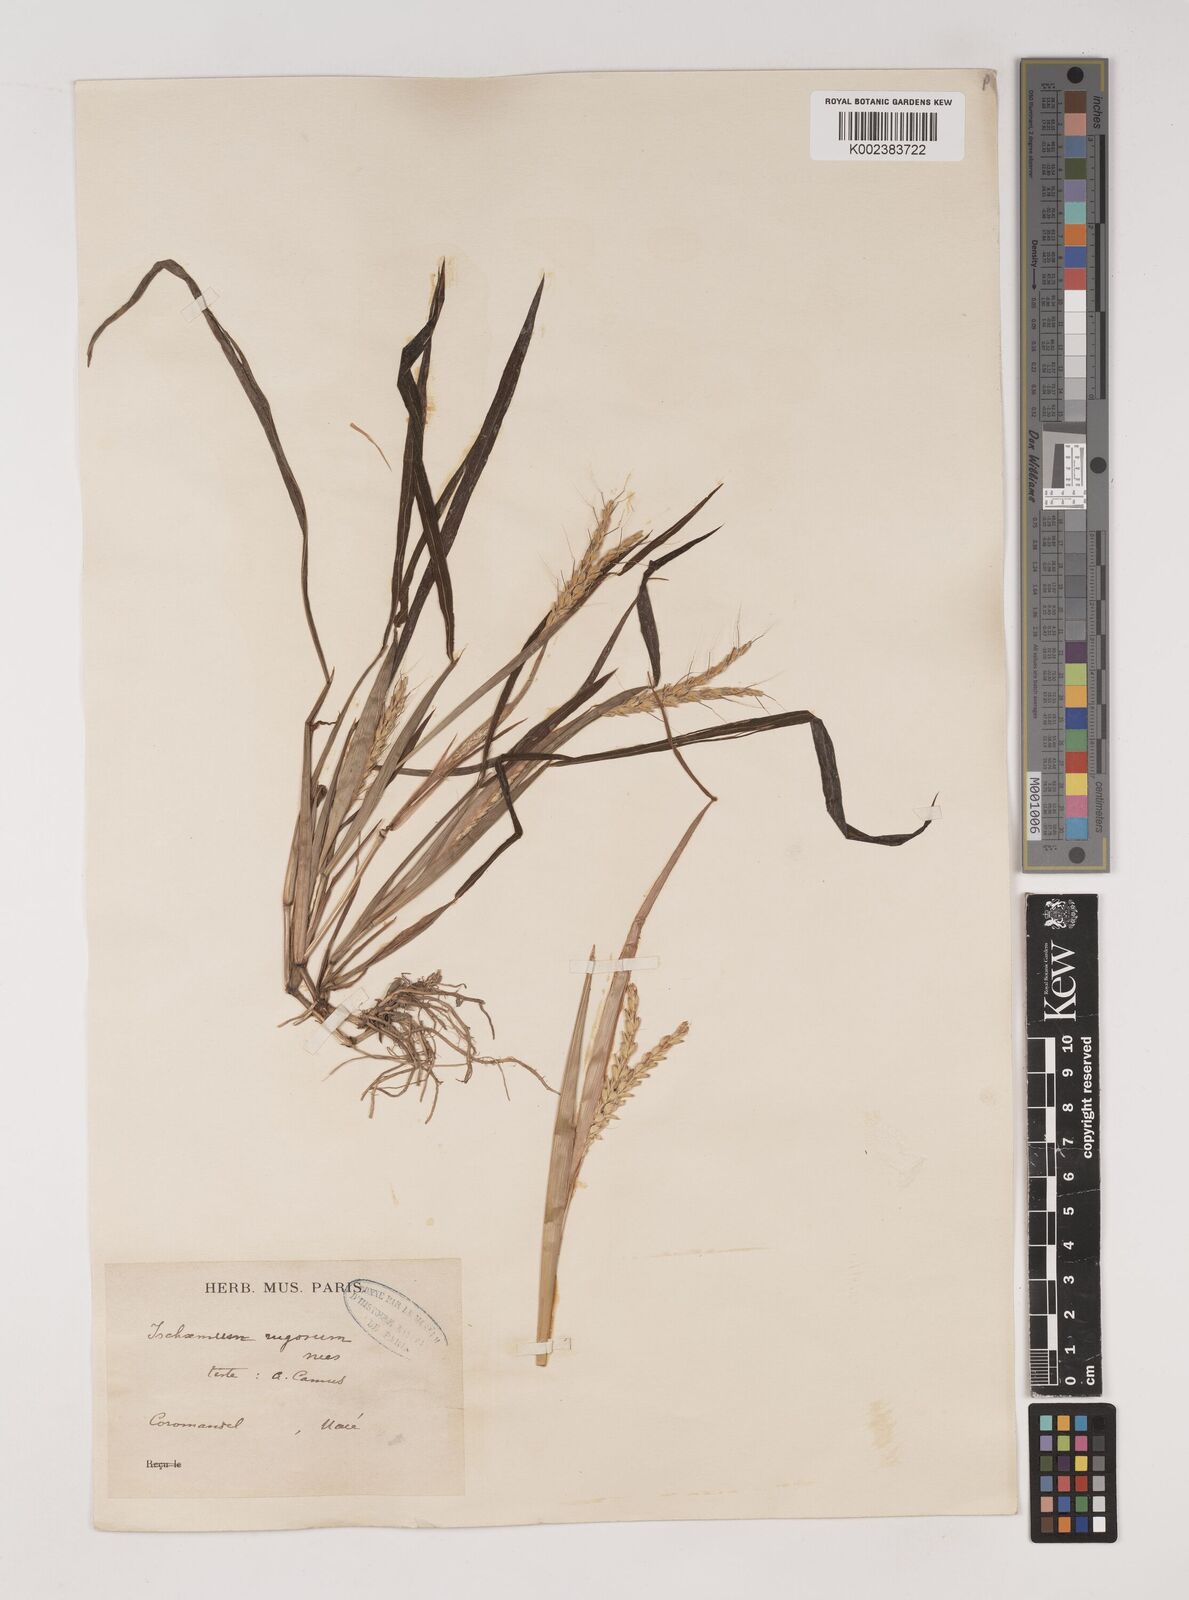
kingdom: Plantae
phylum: Tracheophyta
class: Liliopsida
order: Poales
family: Poaceae
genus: Ischaemum
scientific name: Ischaemum rugosum
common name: Saramatta grass
